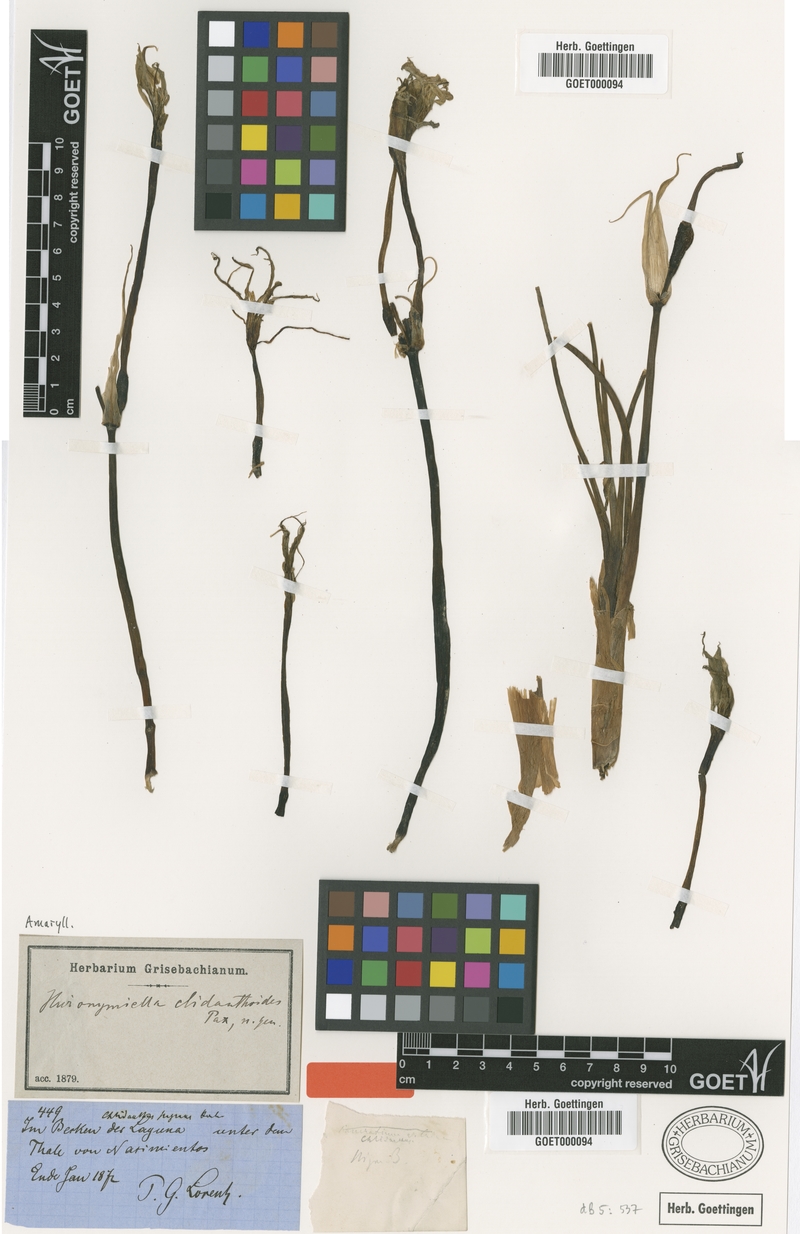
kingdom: Plantae
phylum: Tracheophyta
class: Liliopsida
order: Asparagales
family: Amaryllidaceae
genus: Hieronymiella
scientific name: Hieronymiella clidanthoides
